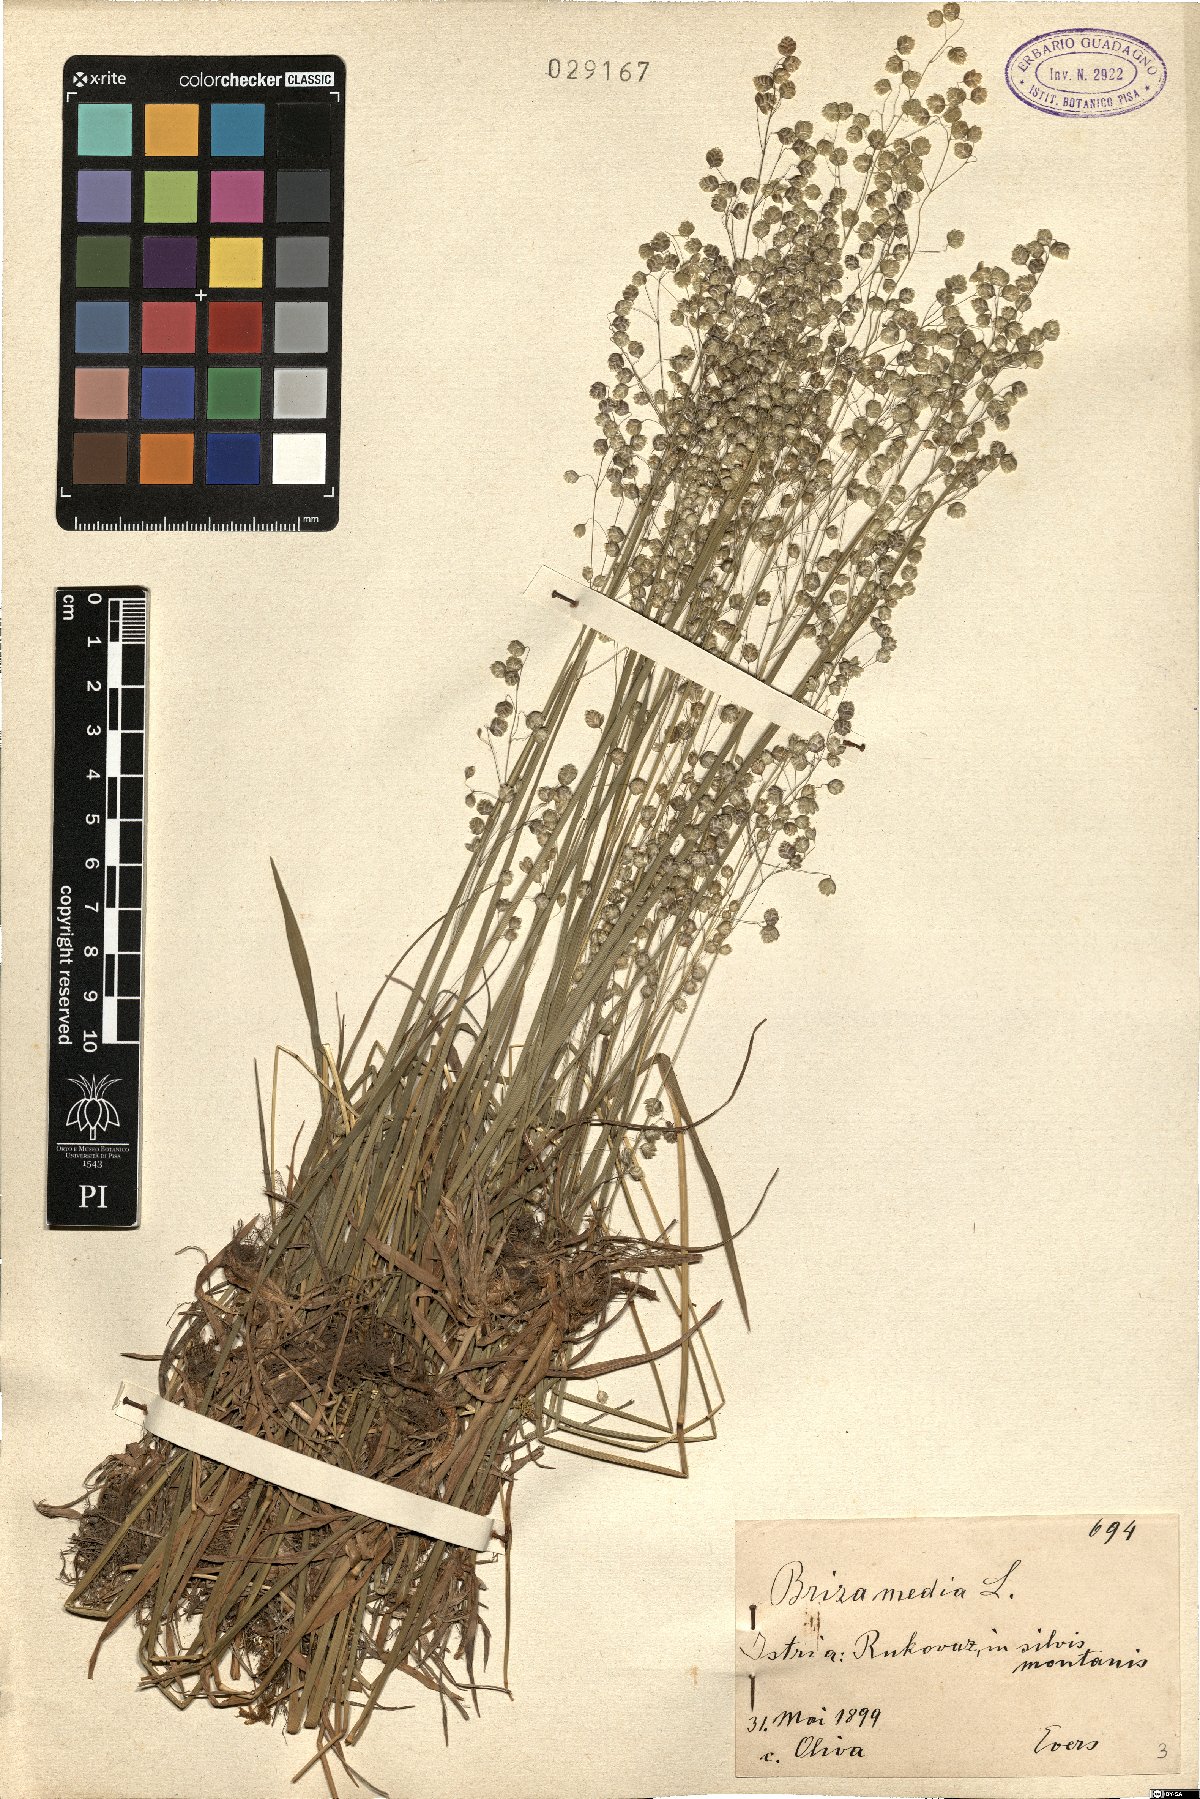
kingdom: Plantae
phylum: Tracheophyta
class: Liliopsida
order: Poales
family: Poaceae
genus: Briza
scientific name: Briza media
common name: Quaking grass
